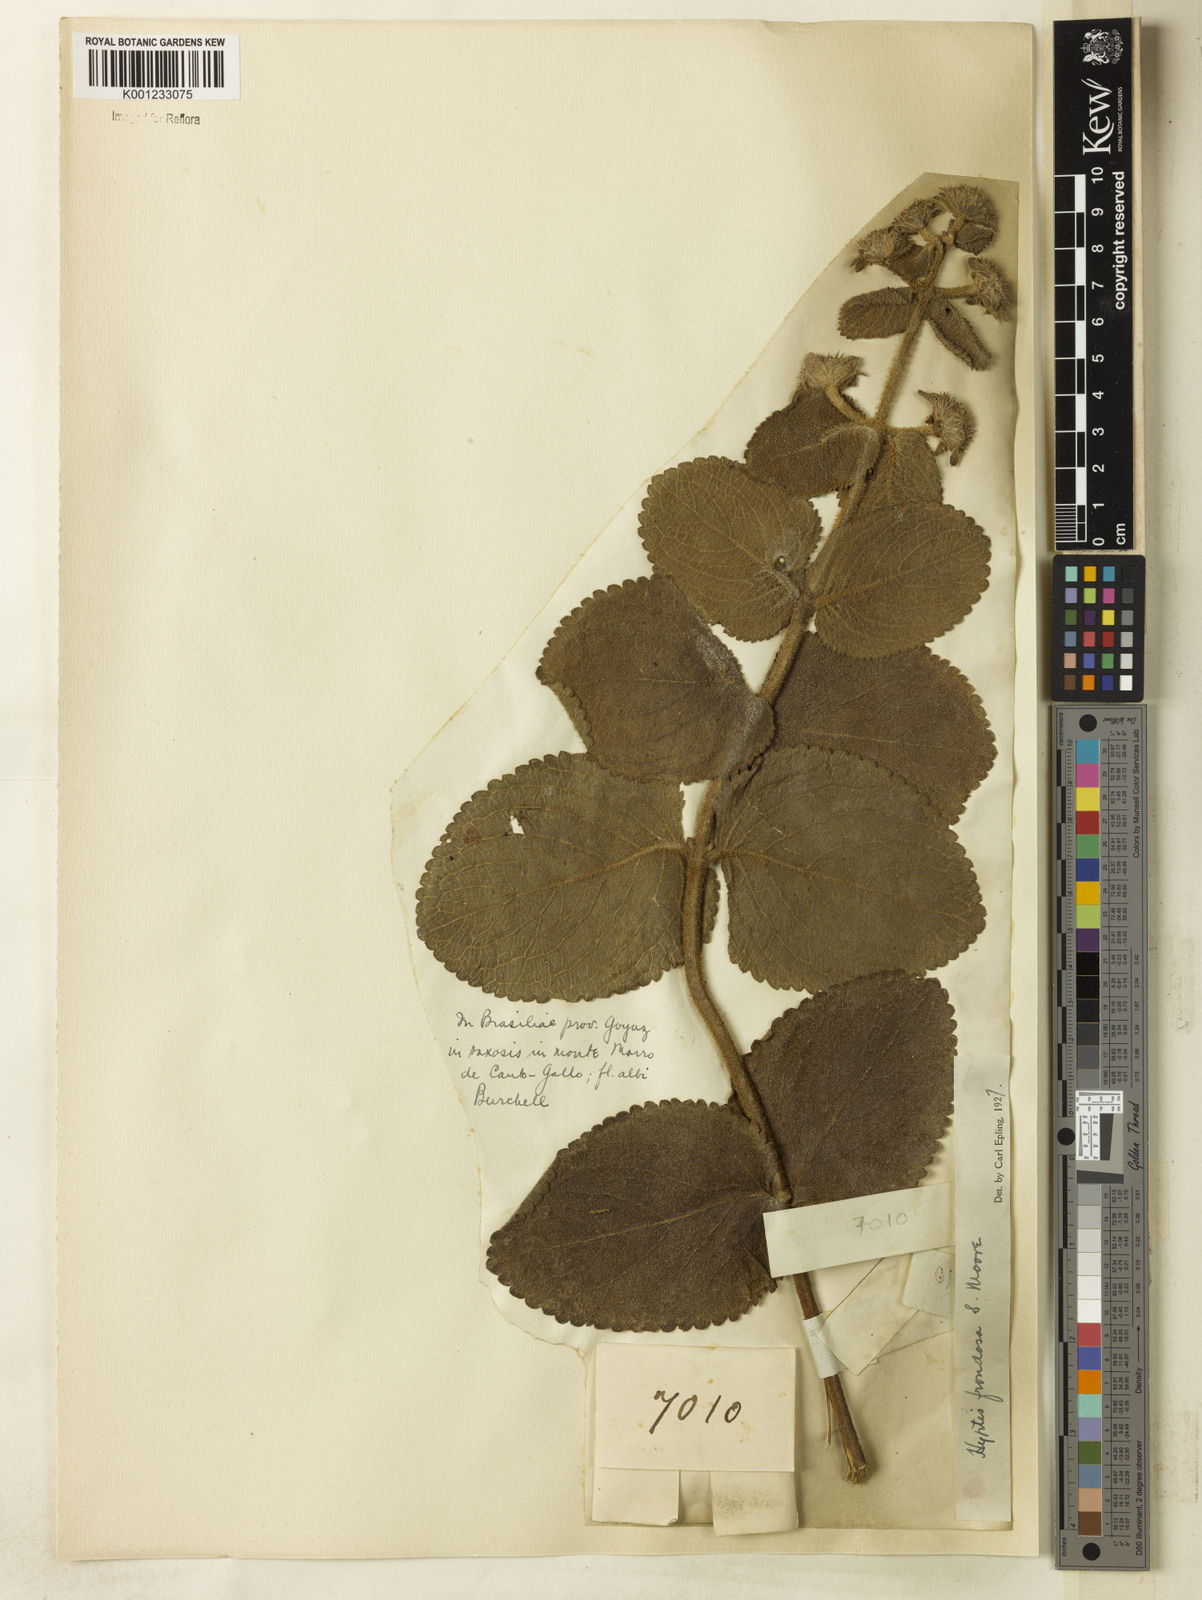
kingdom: Plantae
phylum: Tracheophyta
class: Magnoliopsida
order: Lamiales
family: Lamiaceae
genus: Hyptis
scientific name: Hyptis villosa
